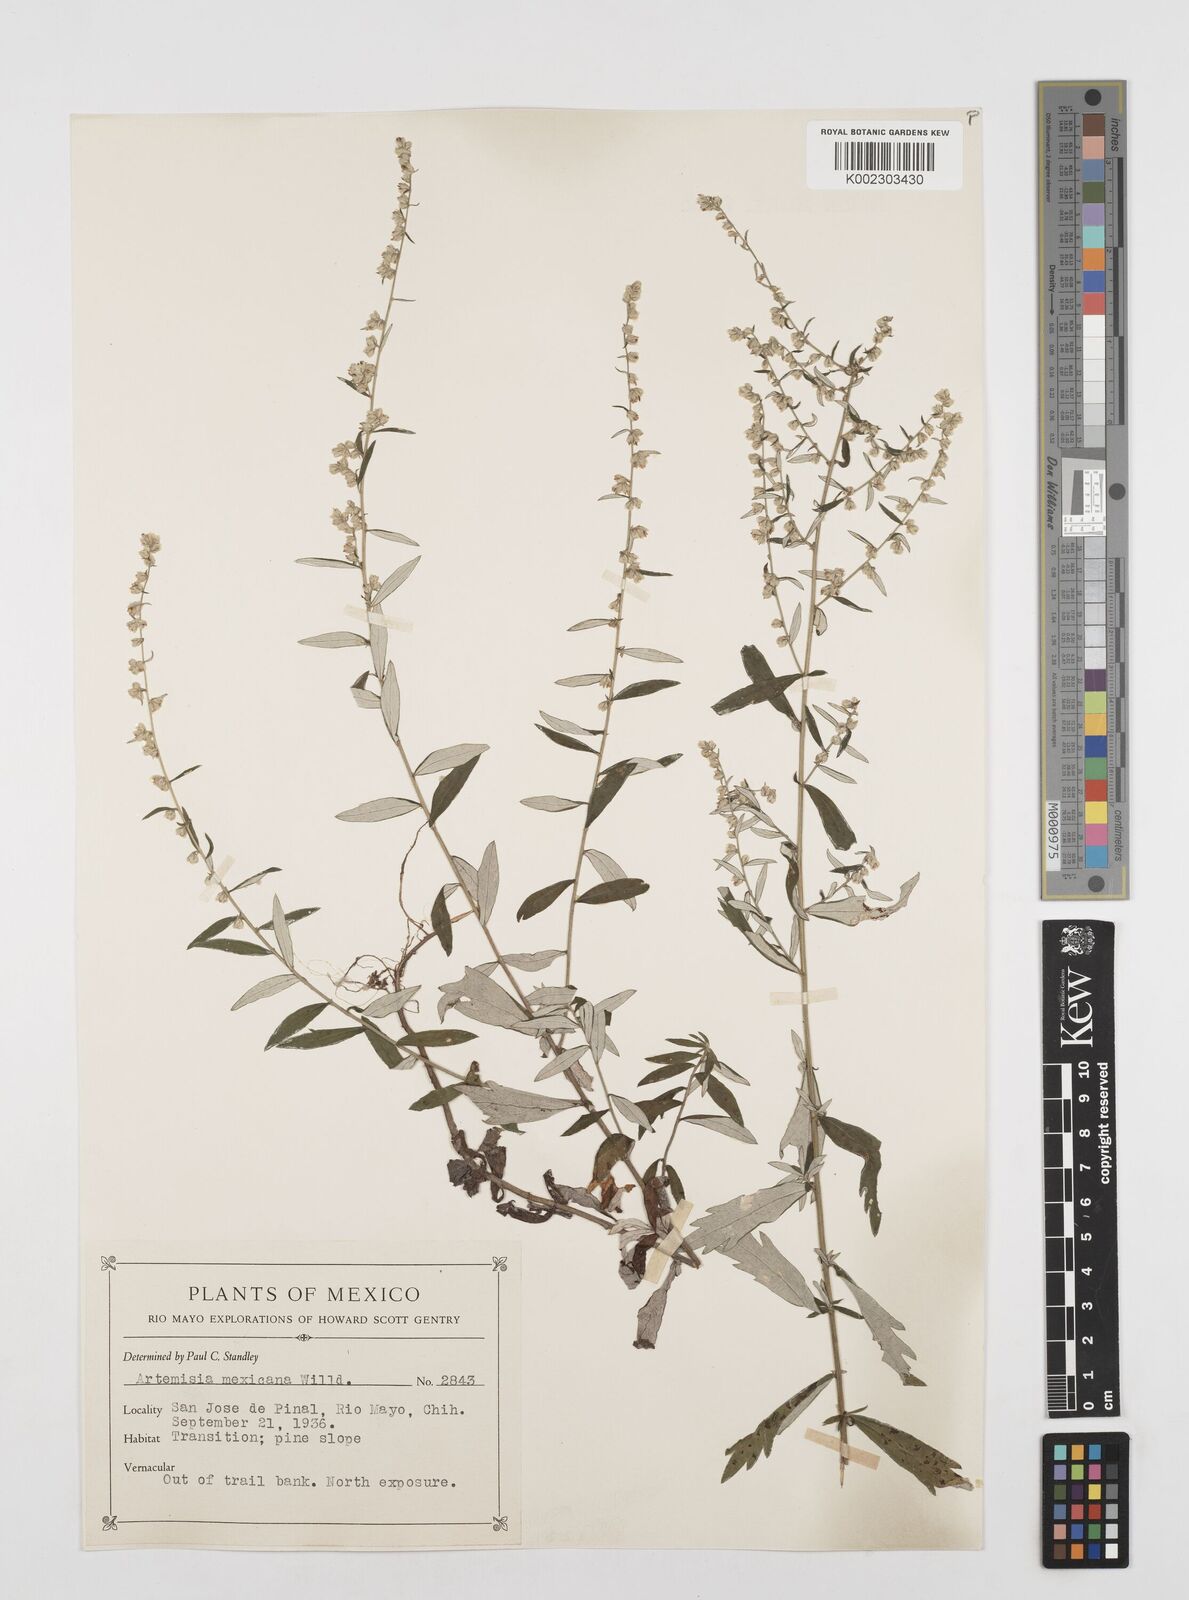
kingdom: Plantae
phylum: Tracheophyta
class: Magnoliopsida
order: Asterales
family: Asteraceae
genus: Artemisia
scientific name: Artemisia ludoviciana
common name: Western mugwort
